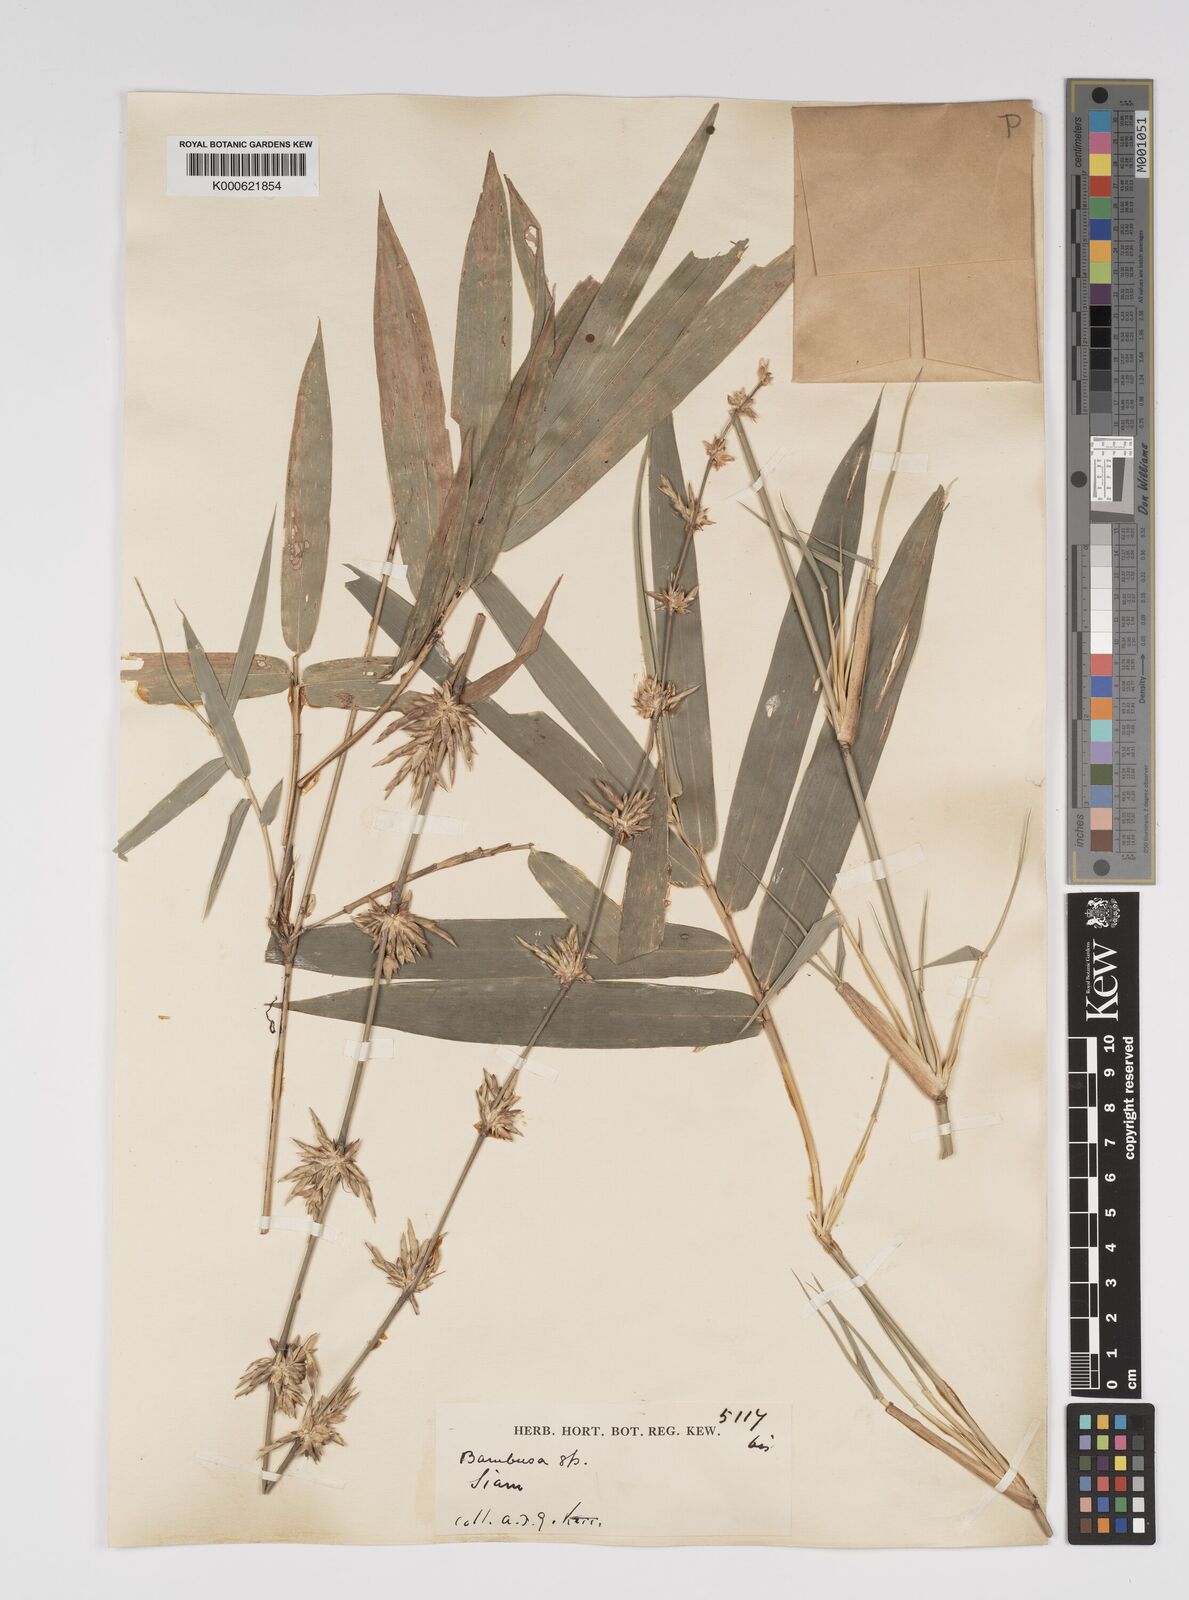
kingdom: Plantae
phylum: Tracheophyta
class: Liliopsida
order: Poales
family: Poaceae
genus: Bambusa
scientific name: Bambusa tuldoides
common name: Verdant bamboo
